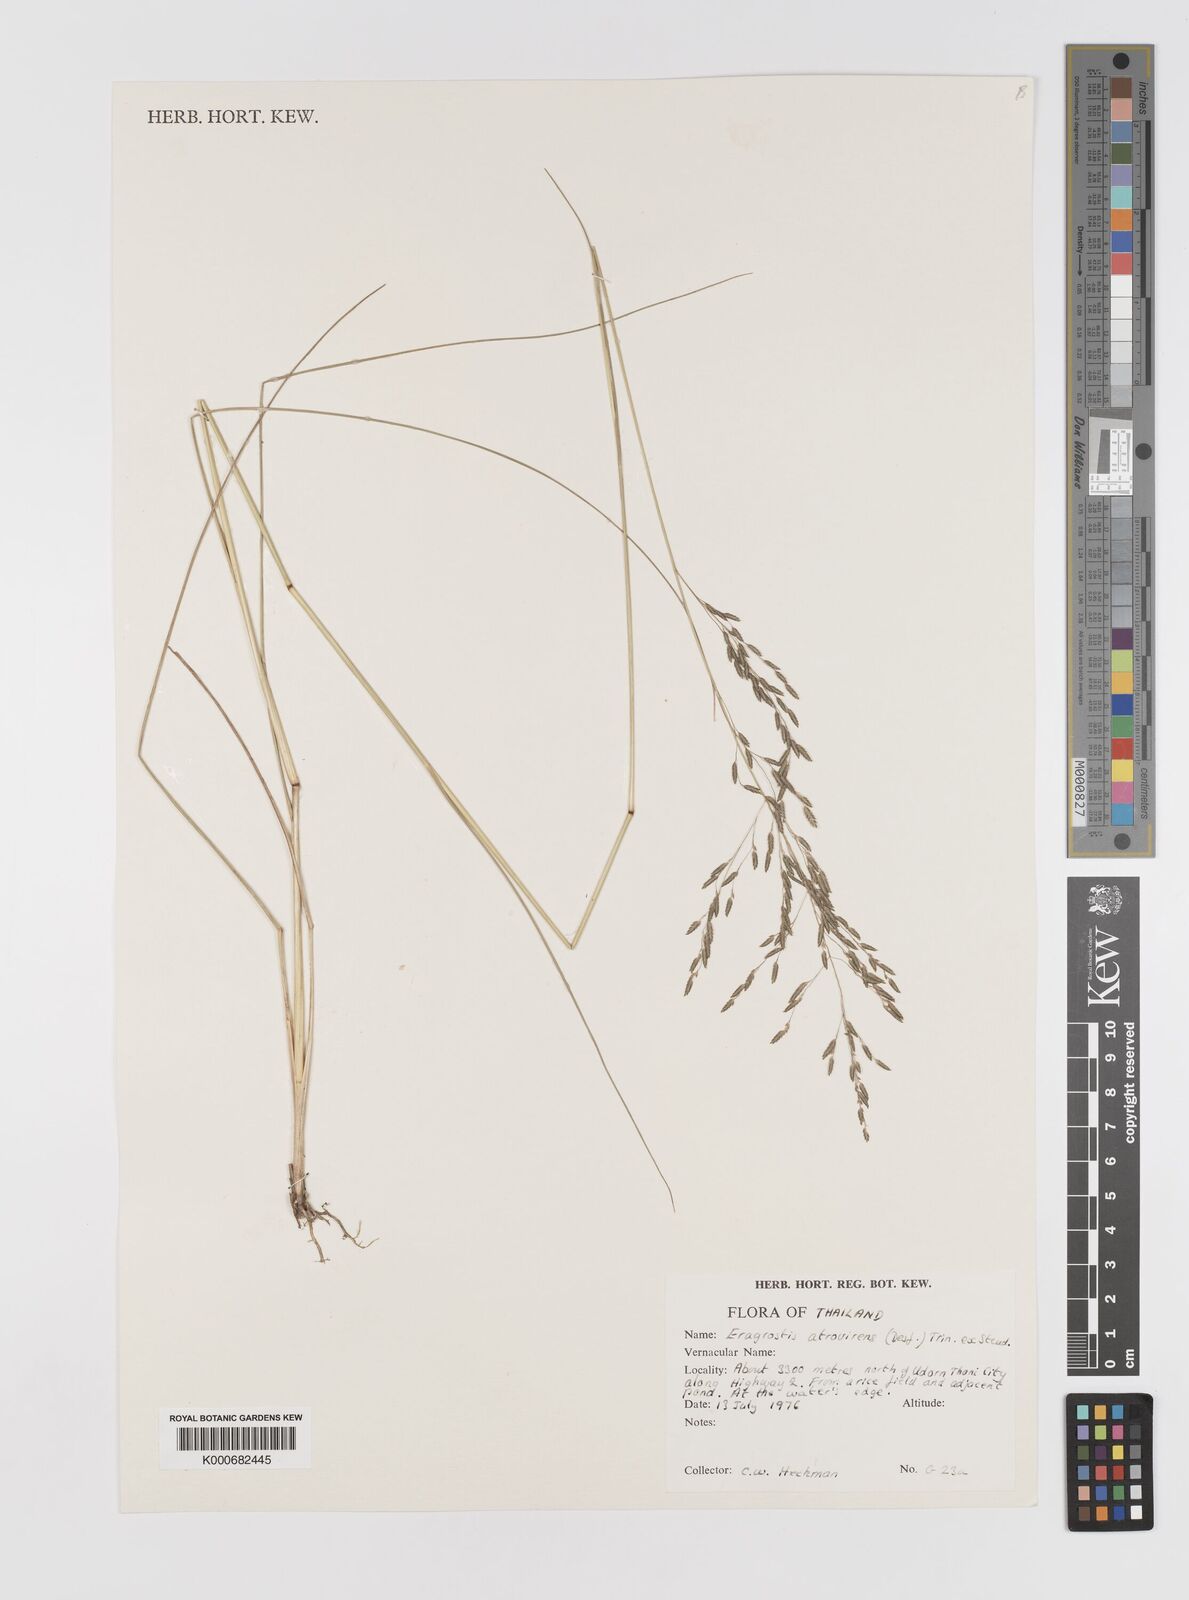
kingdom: Plantae
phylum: Tracheophyta
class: Liliopsida
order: Poales
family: Poaceae
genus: Eragrostis
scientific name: Eragrostis
